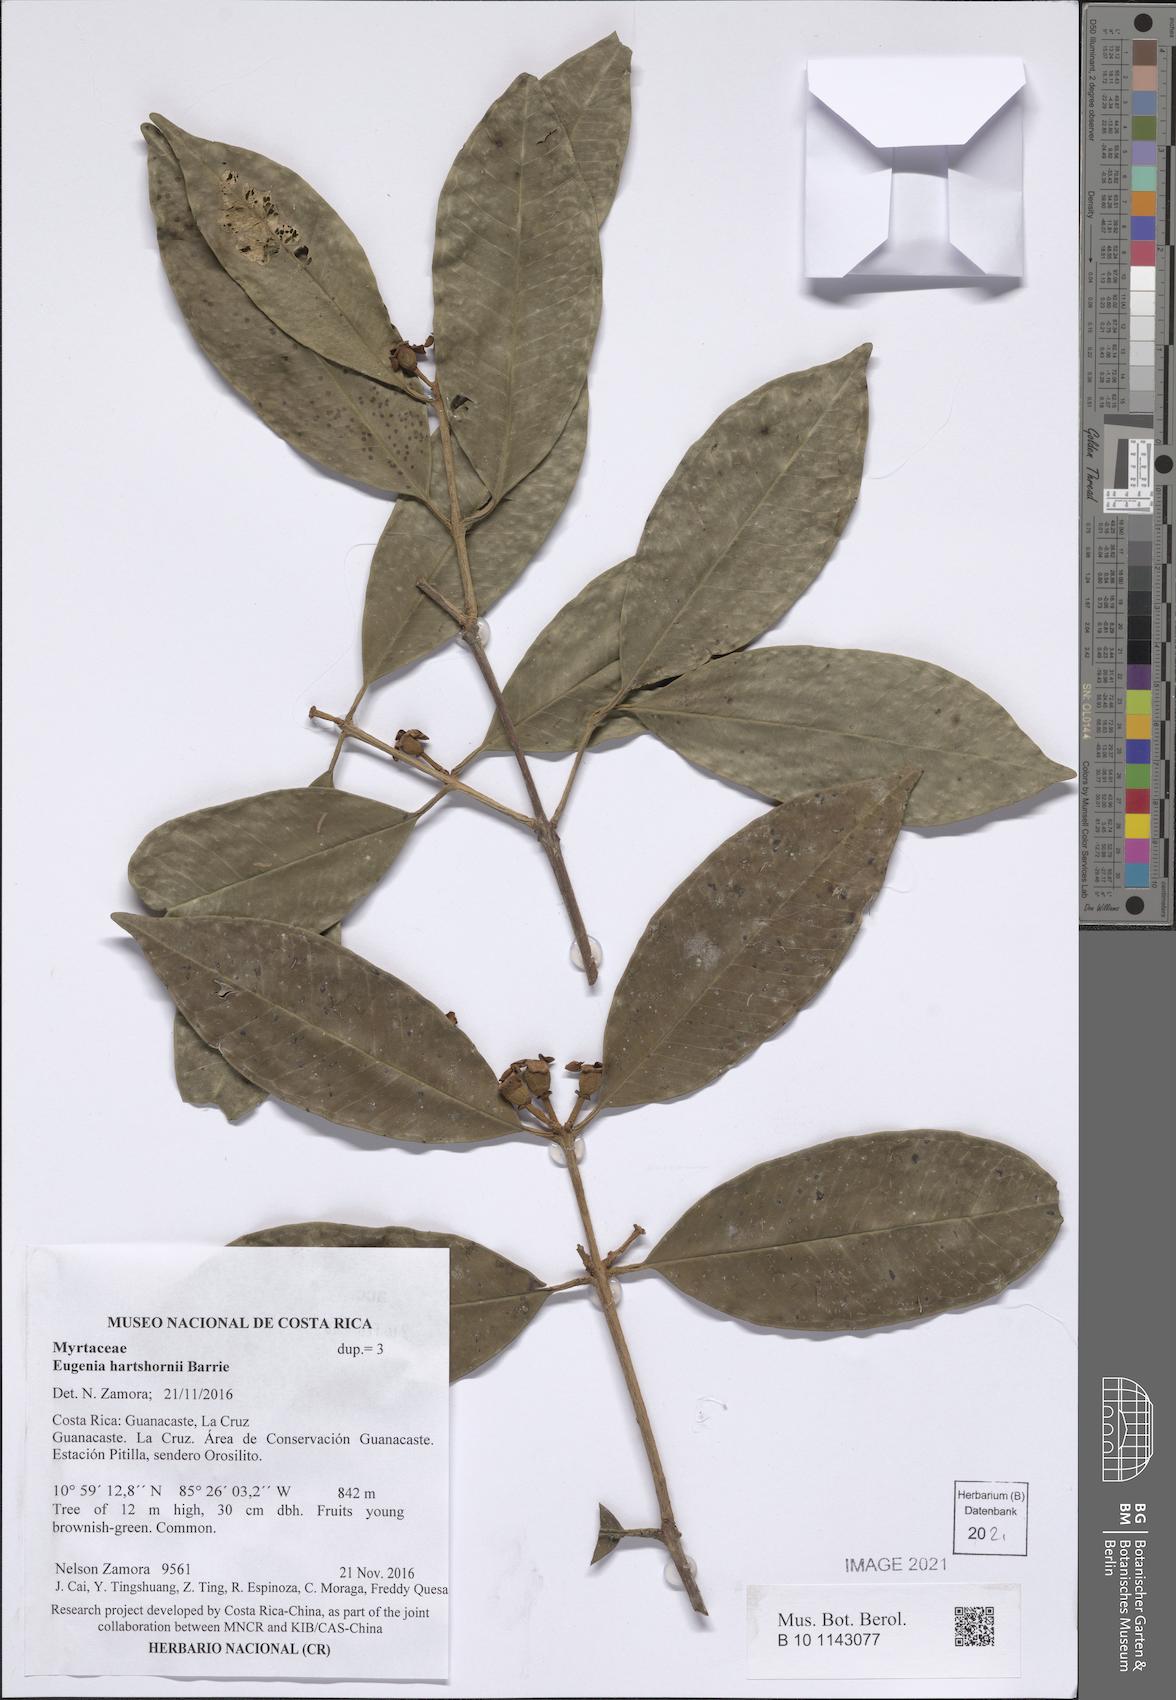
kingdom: Plantae
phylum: Tracheophyta
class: Magnoliopsida
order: Myrtales
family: Myrtaceae
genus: Eugenia
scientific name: Eugenia hartshornii
